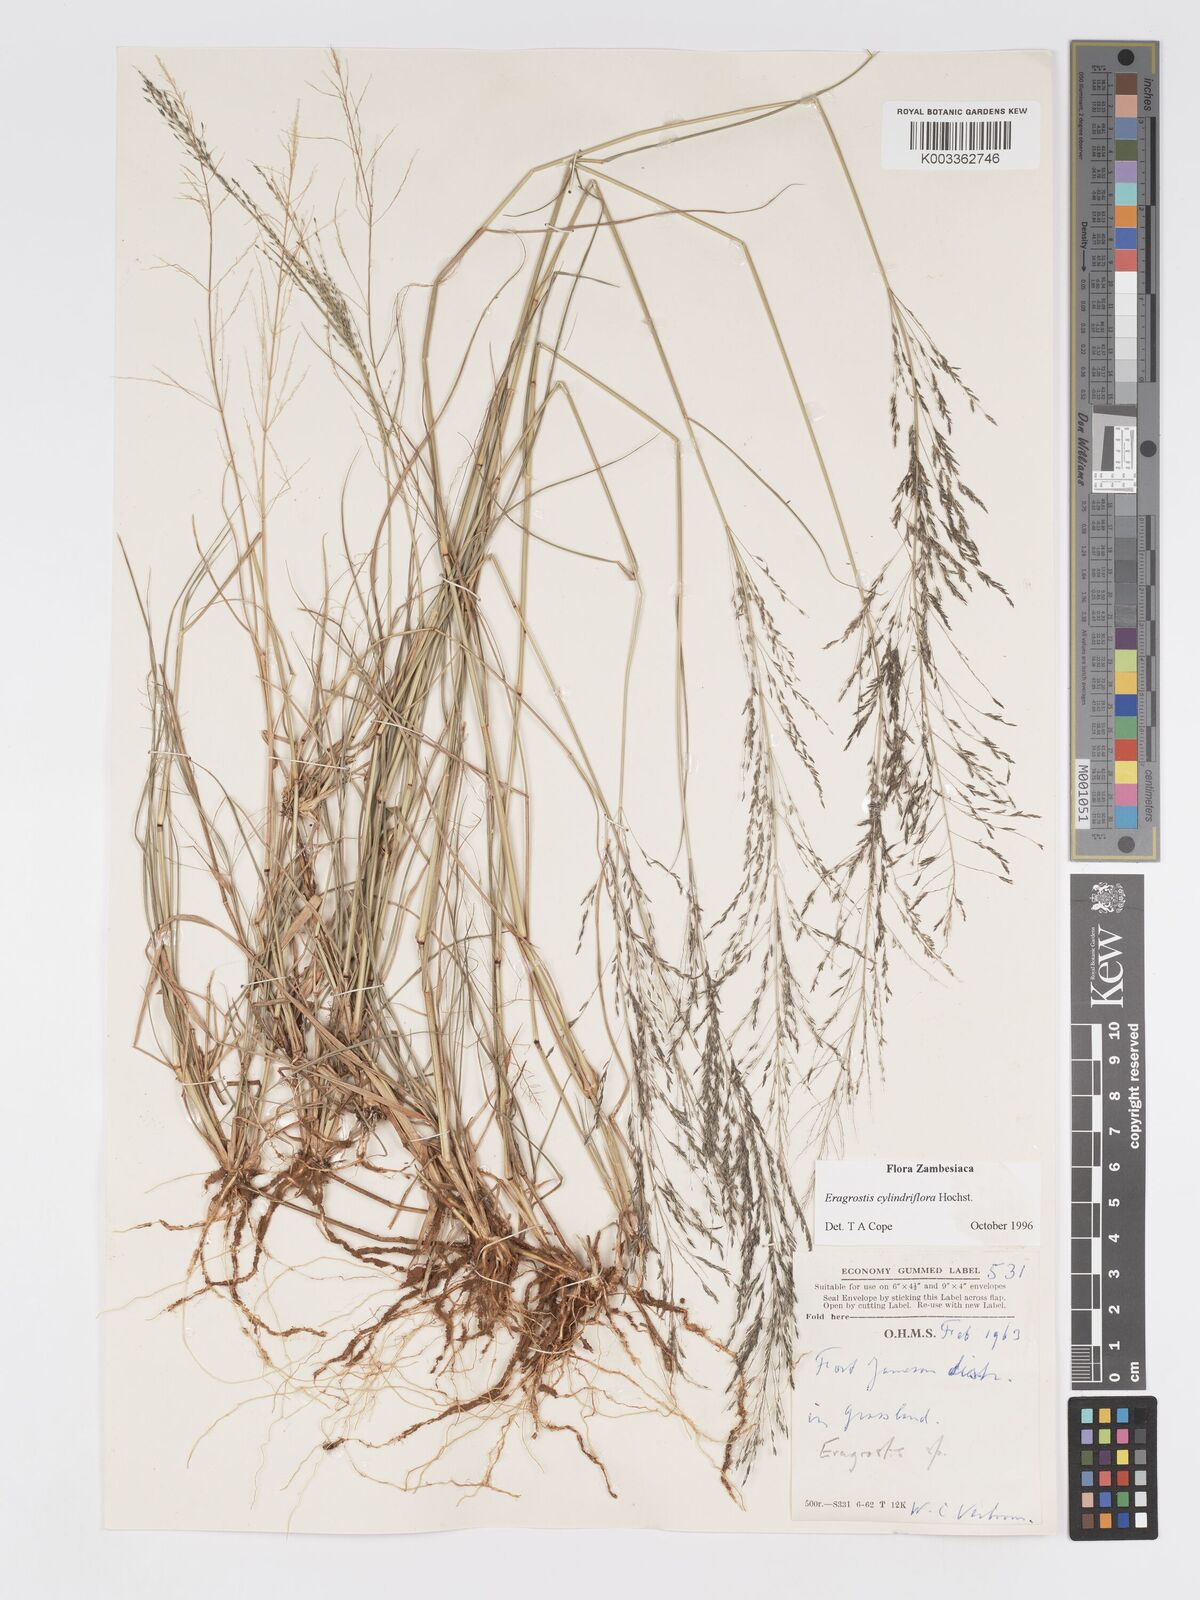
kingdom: Plantae
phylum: Tracheophyta
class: Liliopsida
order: Poales
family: Poaceae
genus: Eragrostis
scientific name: Eragrostis cylindriflora
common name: Cylinderflower lovegrass
